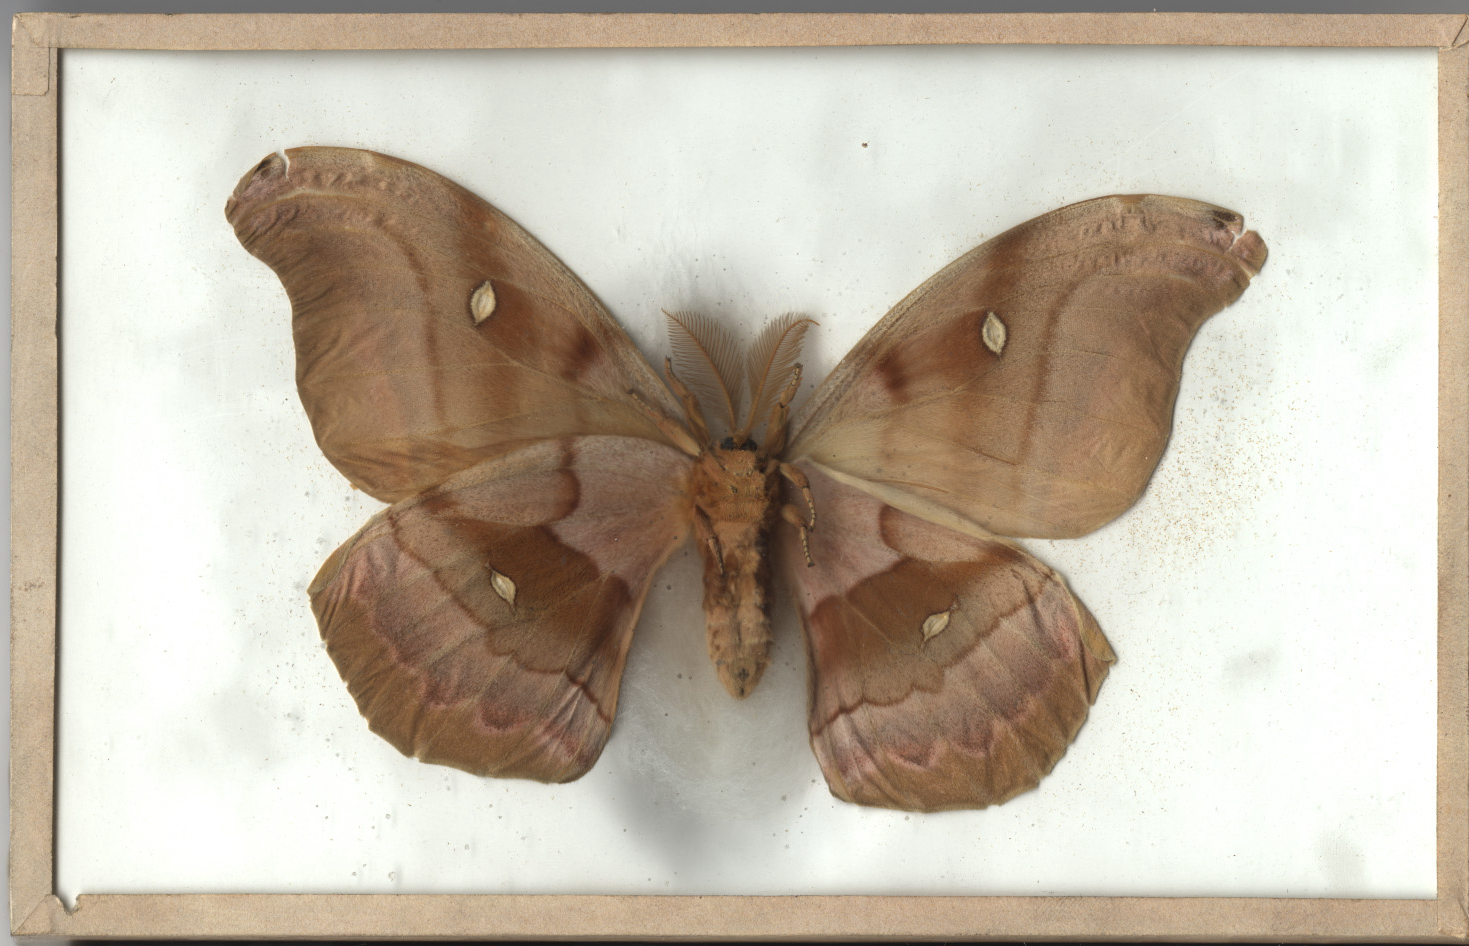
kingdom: Animalia
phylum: Arthropoda
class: Insecta
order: Lepidoptera
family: Saturniidae
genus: Antheraea
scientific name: Antheraea polyphemus
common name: Polyphemus moth
